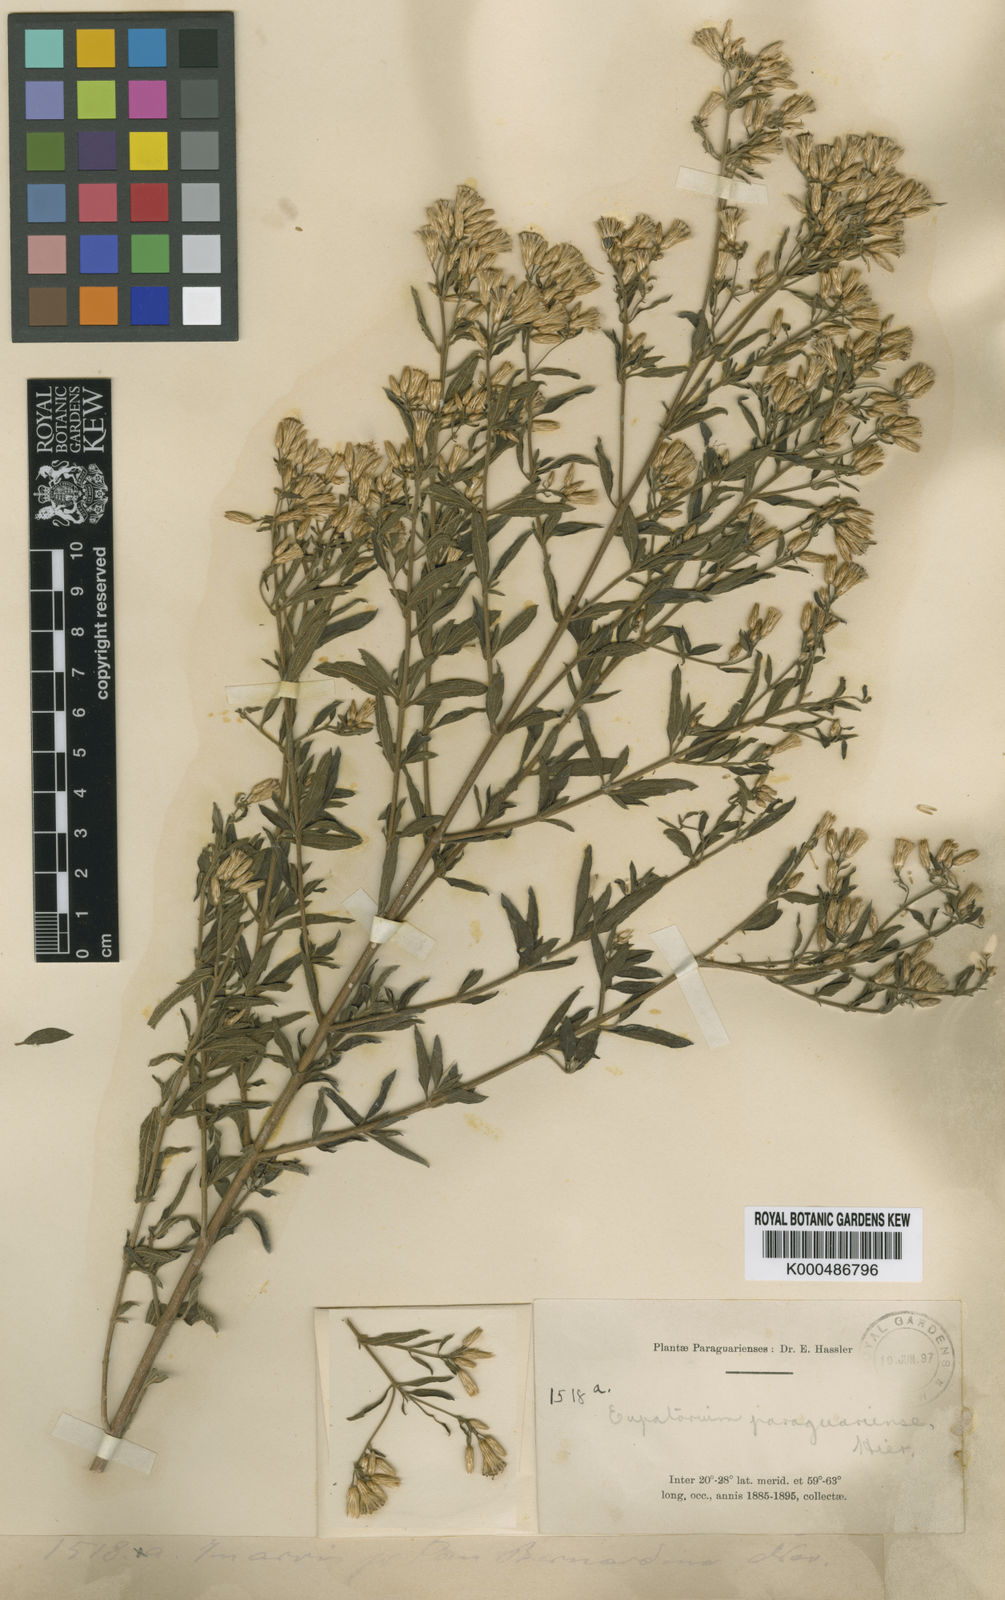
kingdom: Plantae
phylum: Tracheophyta
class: Magnoliopsida
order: Asterales
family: Asteraceae
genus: Chromolaena
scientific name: Chromolaena paraguariensis
